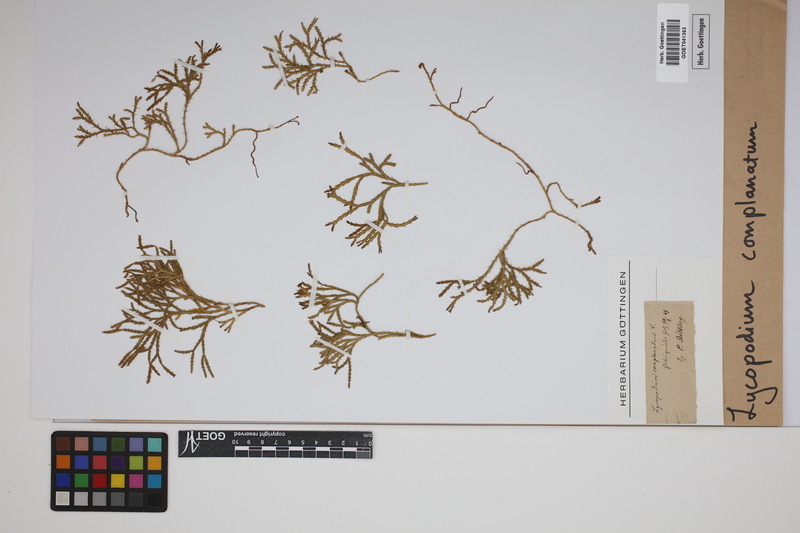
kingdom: Plantae
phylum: Tracheophyta
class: Lycopodiopsida
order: Lycopodiales
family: Lycopodiaceae
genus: Diphasiastrum
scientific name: Diphasiastrum complanatum
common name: Northern running-pine
